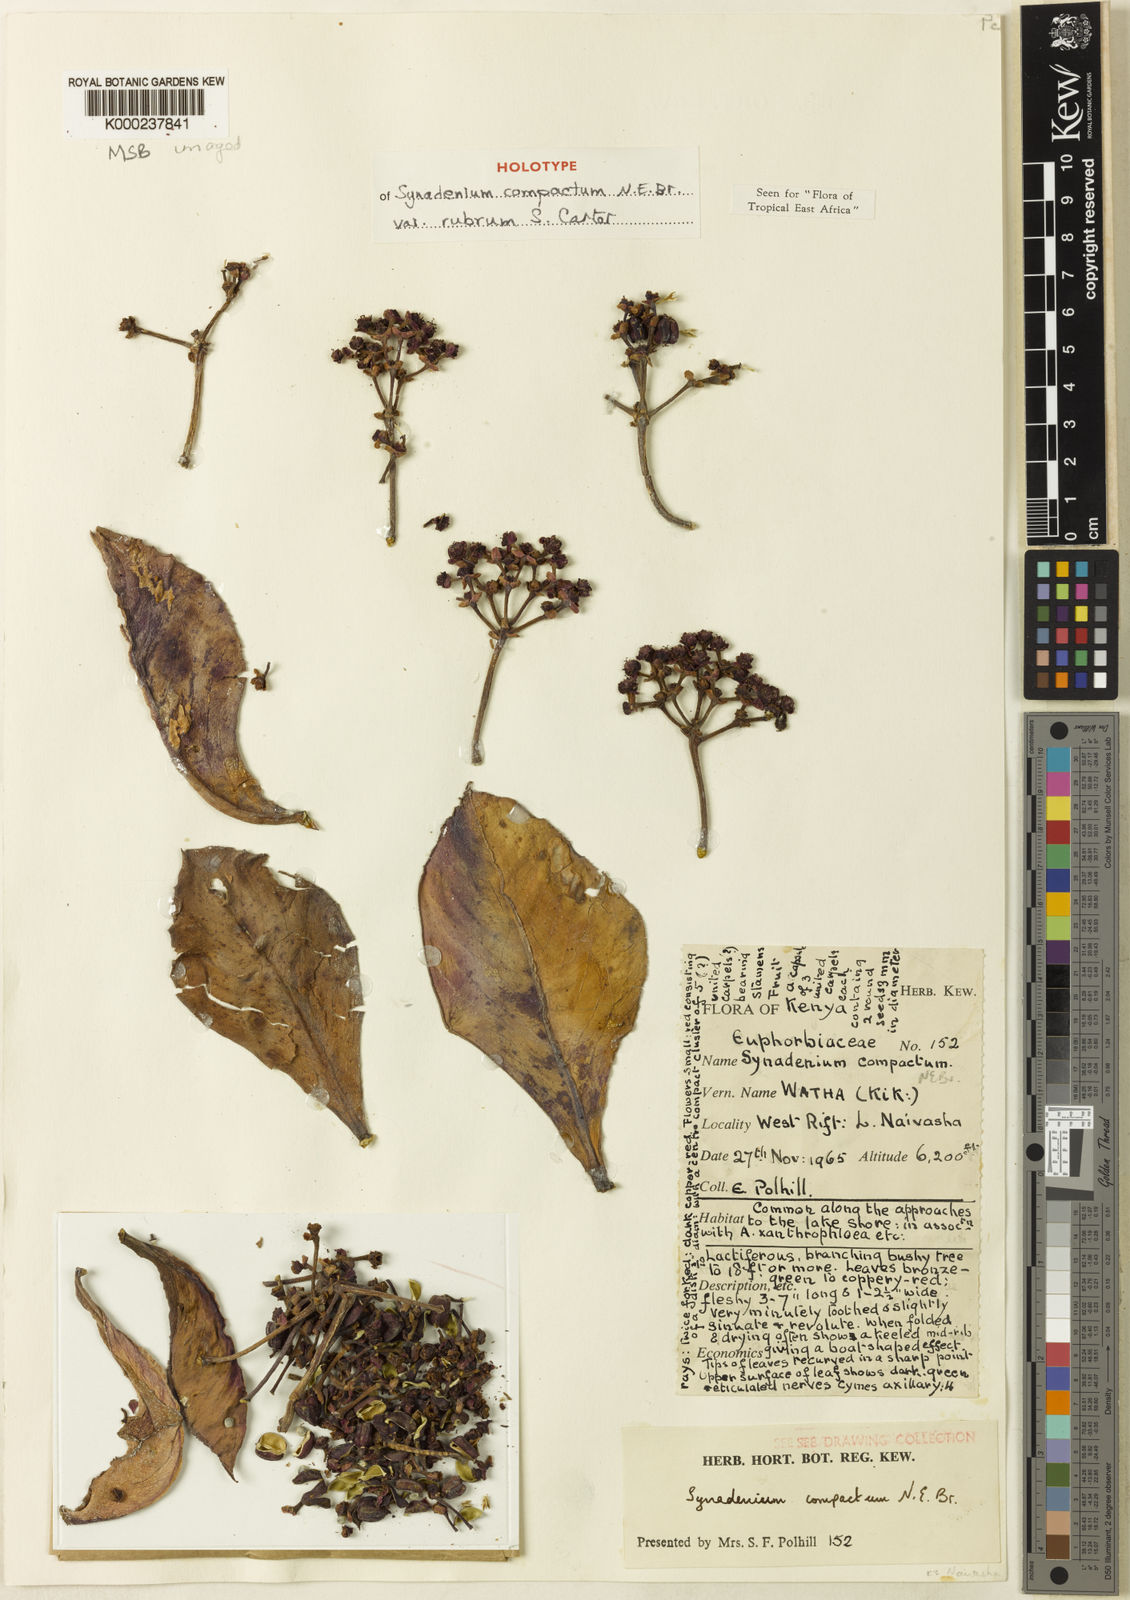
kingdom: Plantae
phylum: Tracheophyta
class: Magnoliopsida
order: Malpighiales
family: Euphorbiaceae
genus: Euphorbia
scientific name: Euphorbia bicompacta
